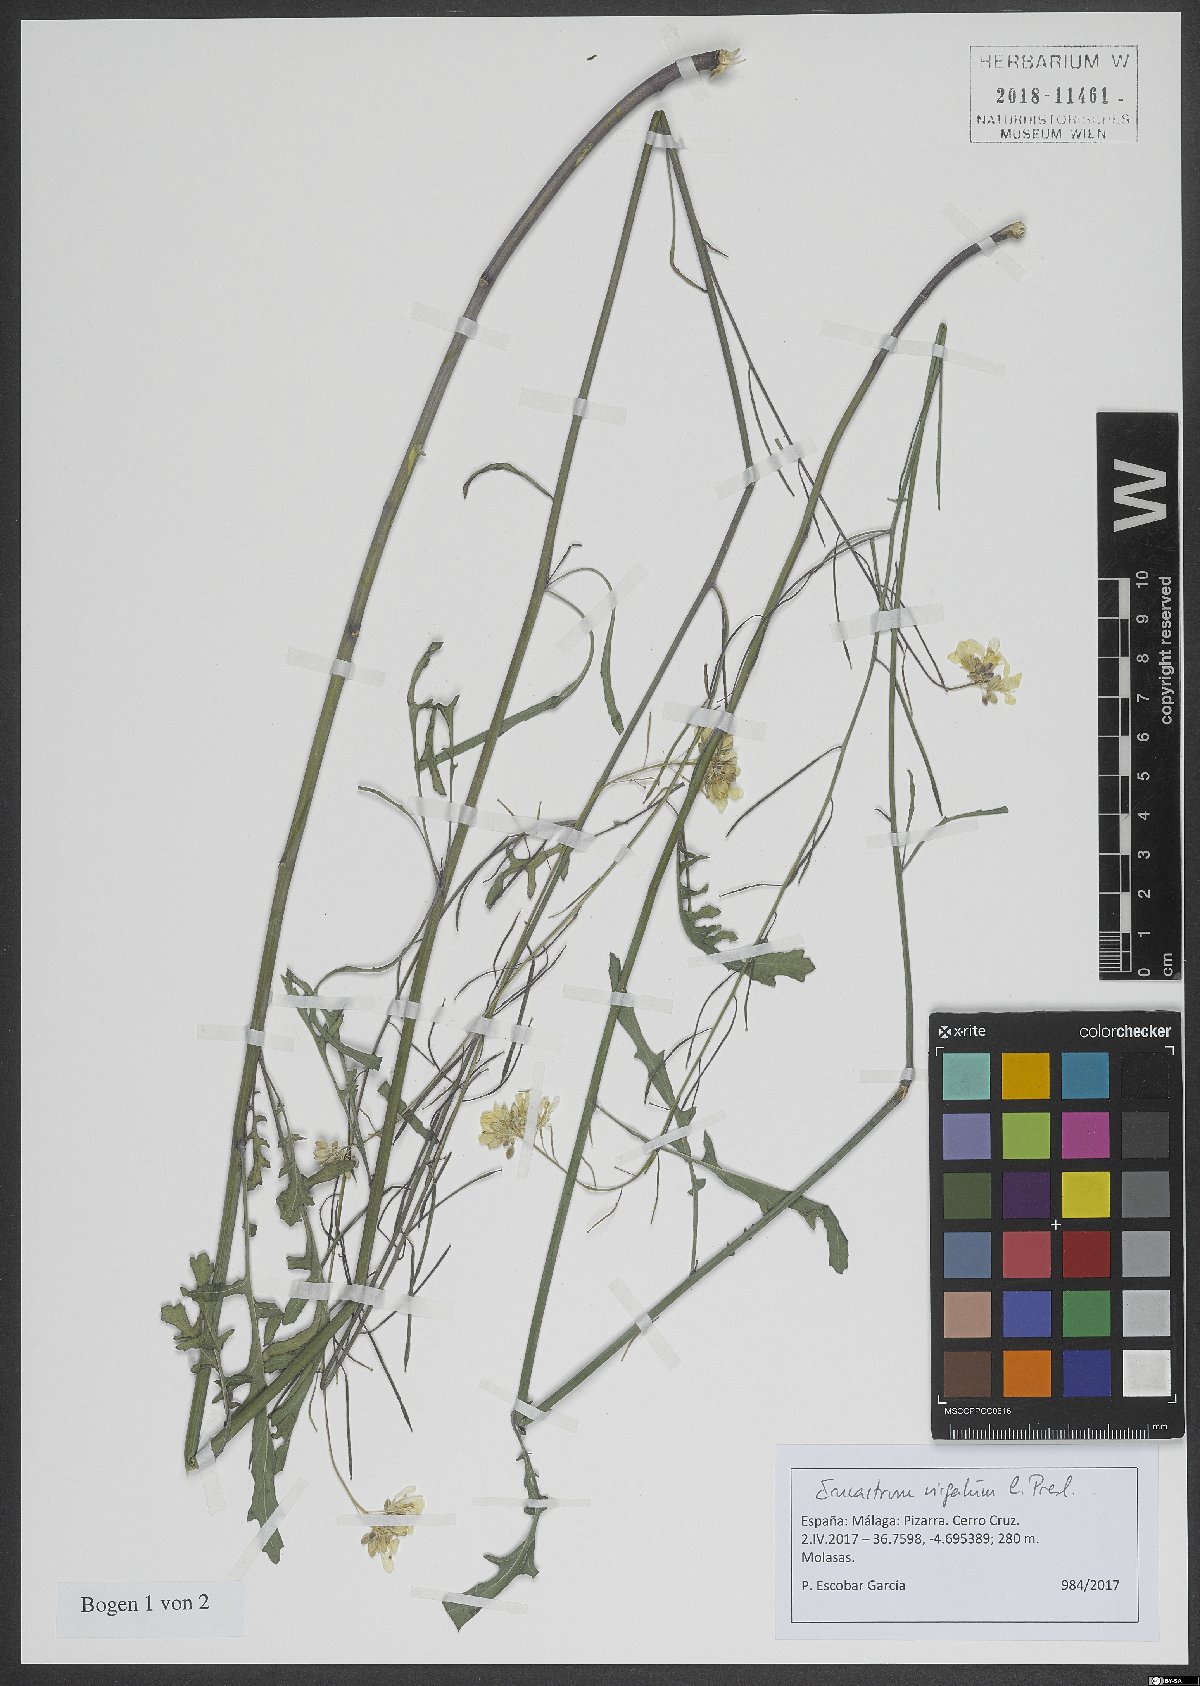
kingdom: Plantae
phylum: Tracheophyta
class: Magnoliopsida
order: Brassicales
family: Brassicaceae
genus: Erucastrum
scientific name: Erucastrum virgatum
